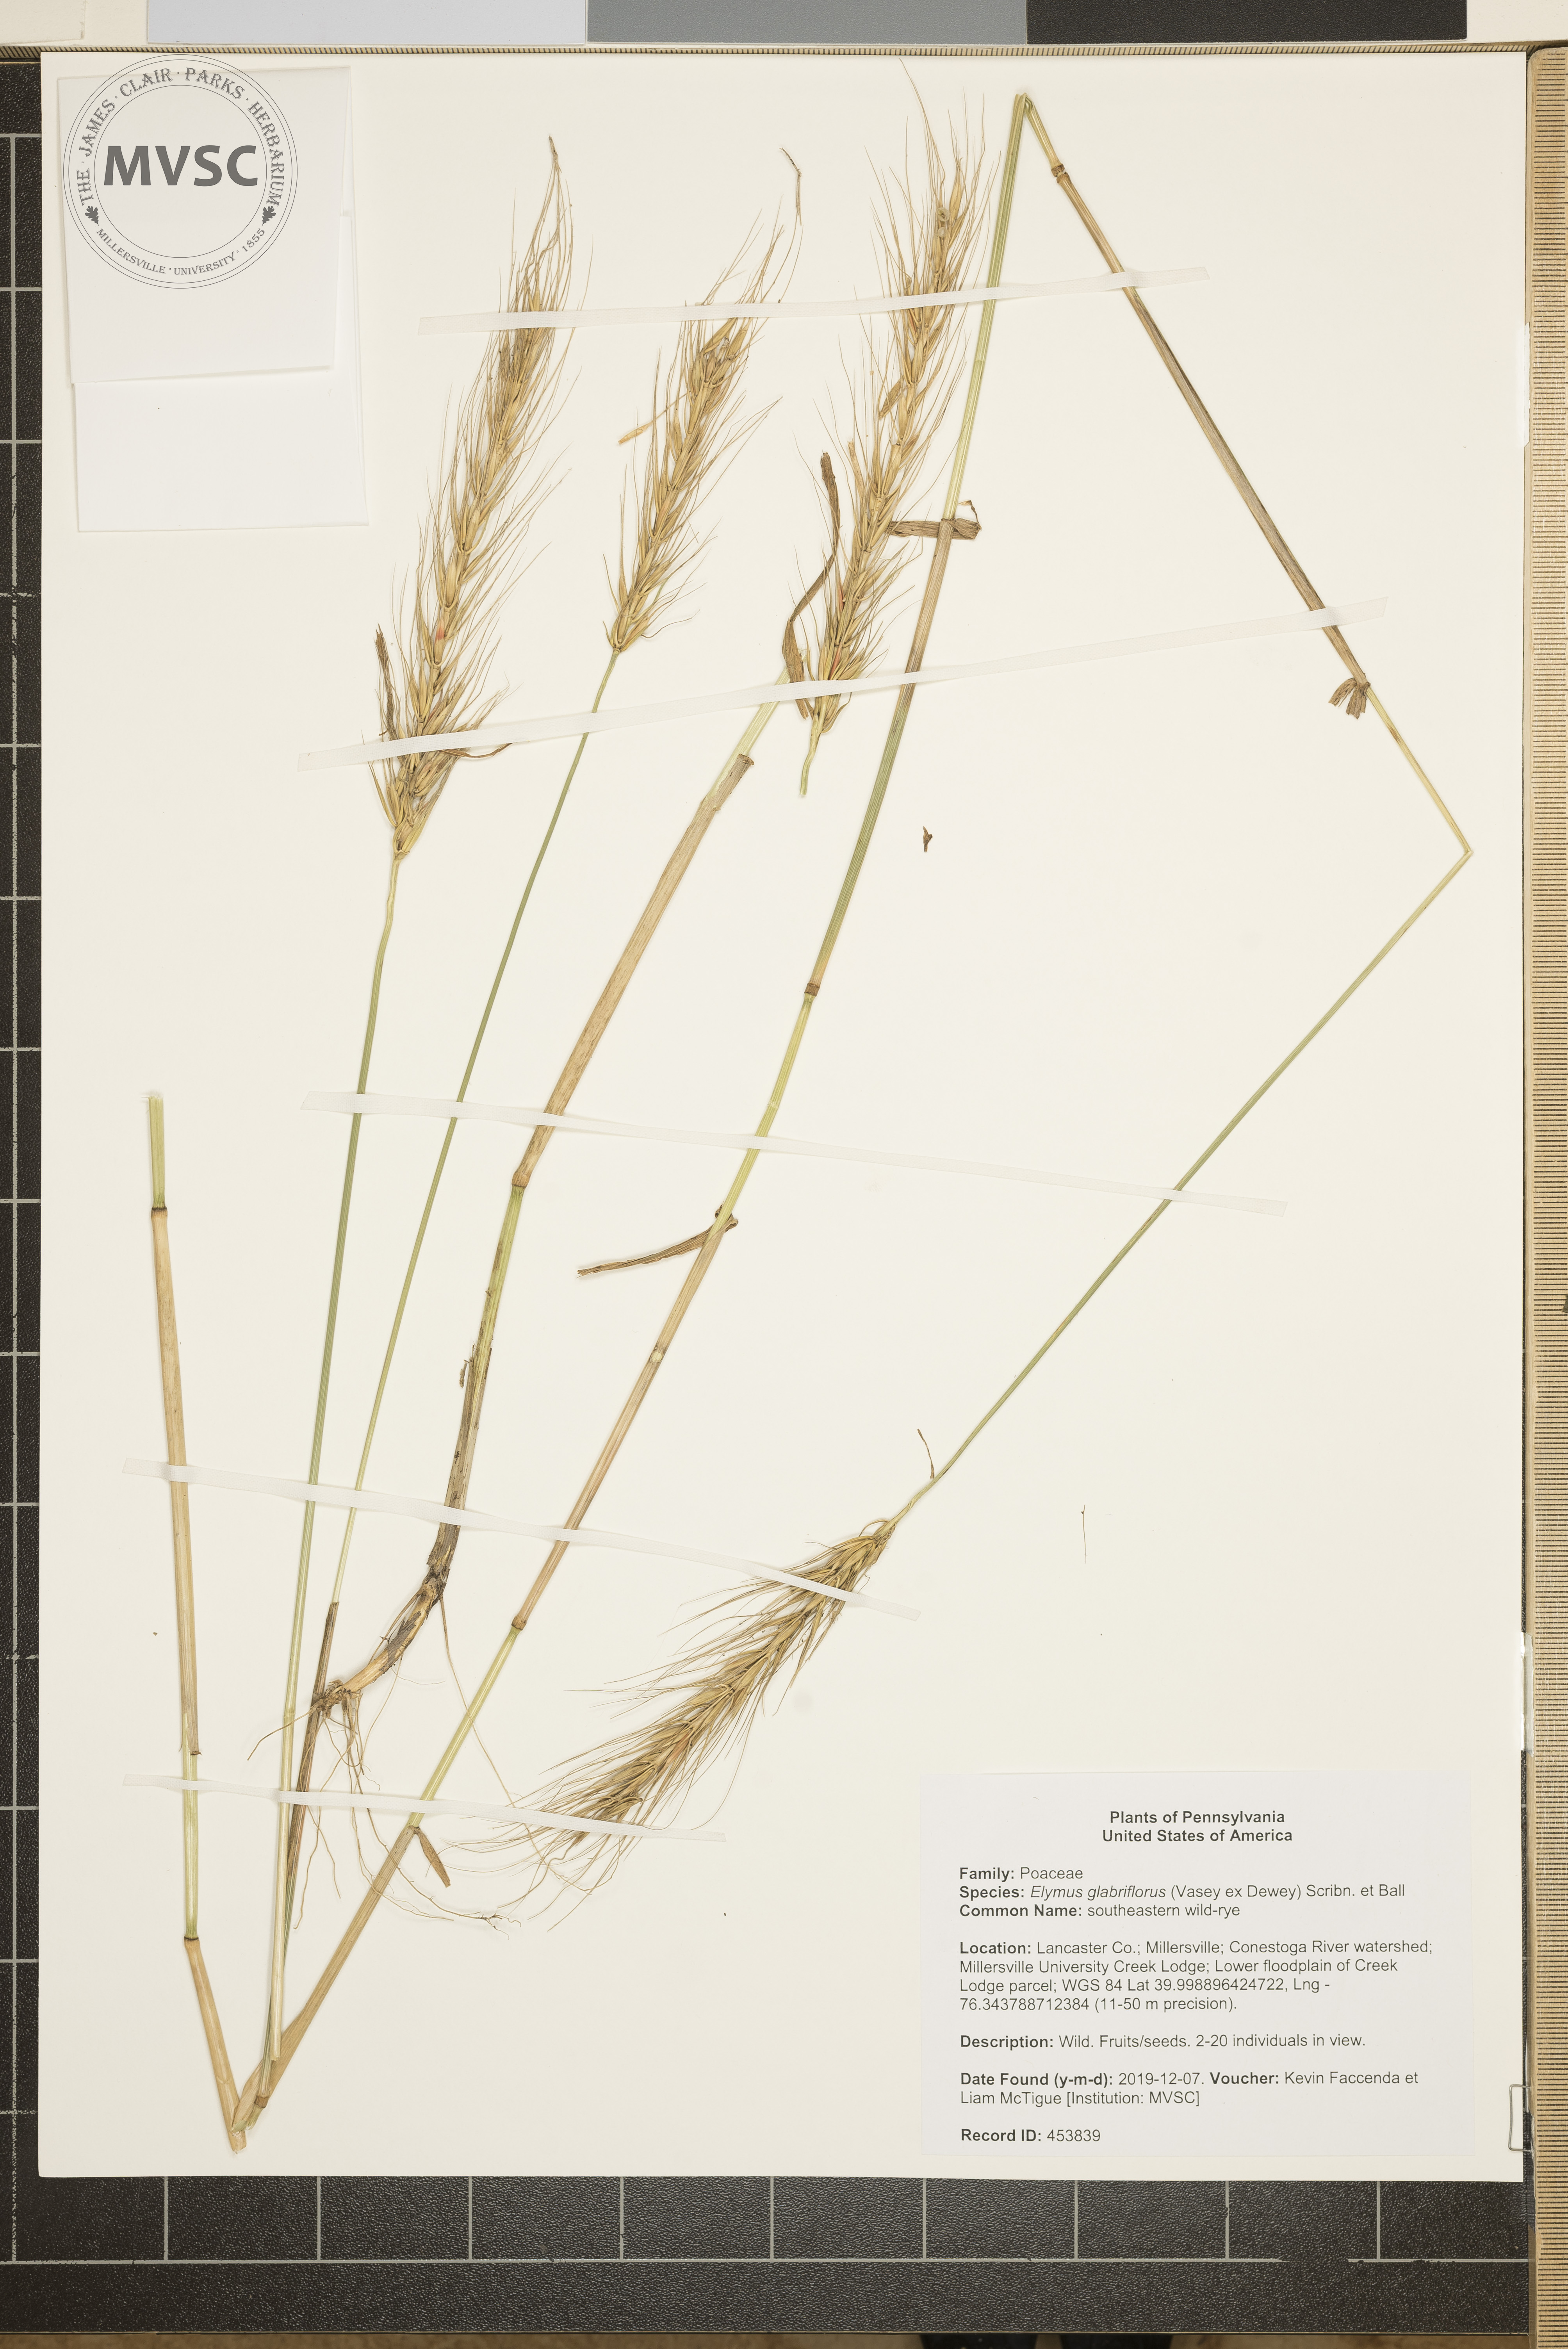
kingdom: Plantae
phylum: Tracheophyta
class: Liliopsida
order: Poales
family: Poaceae
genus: Elymus
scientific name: Elymus virginicus
